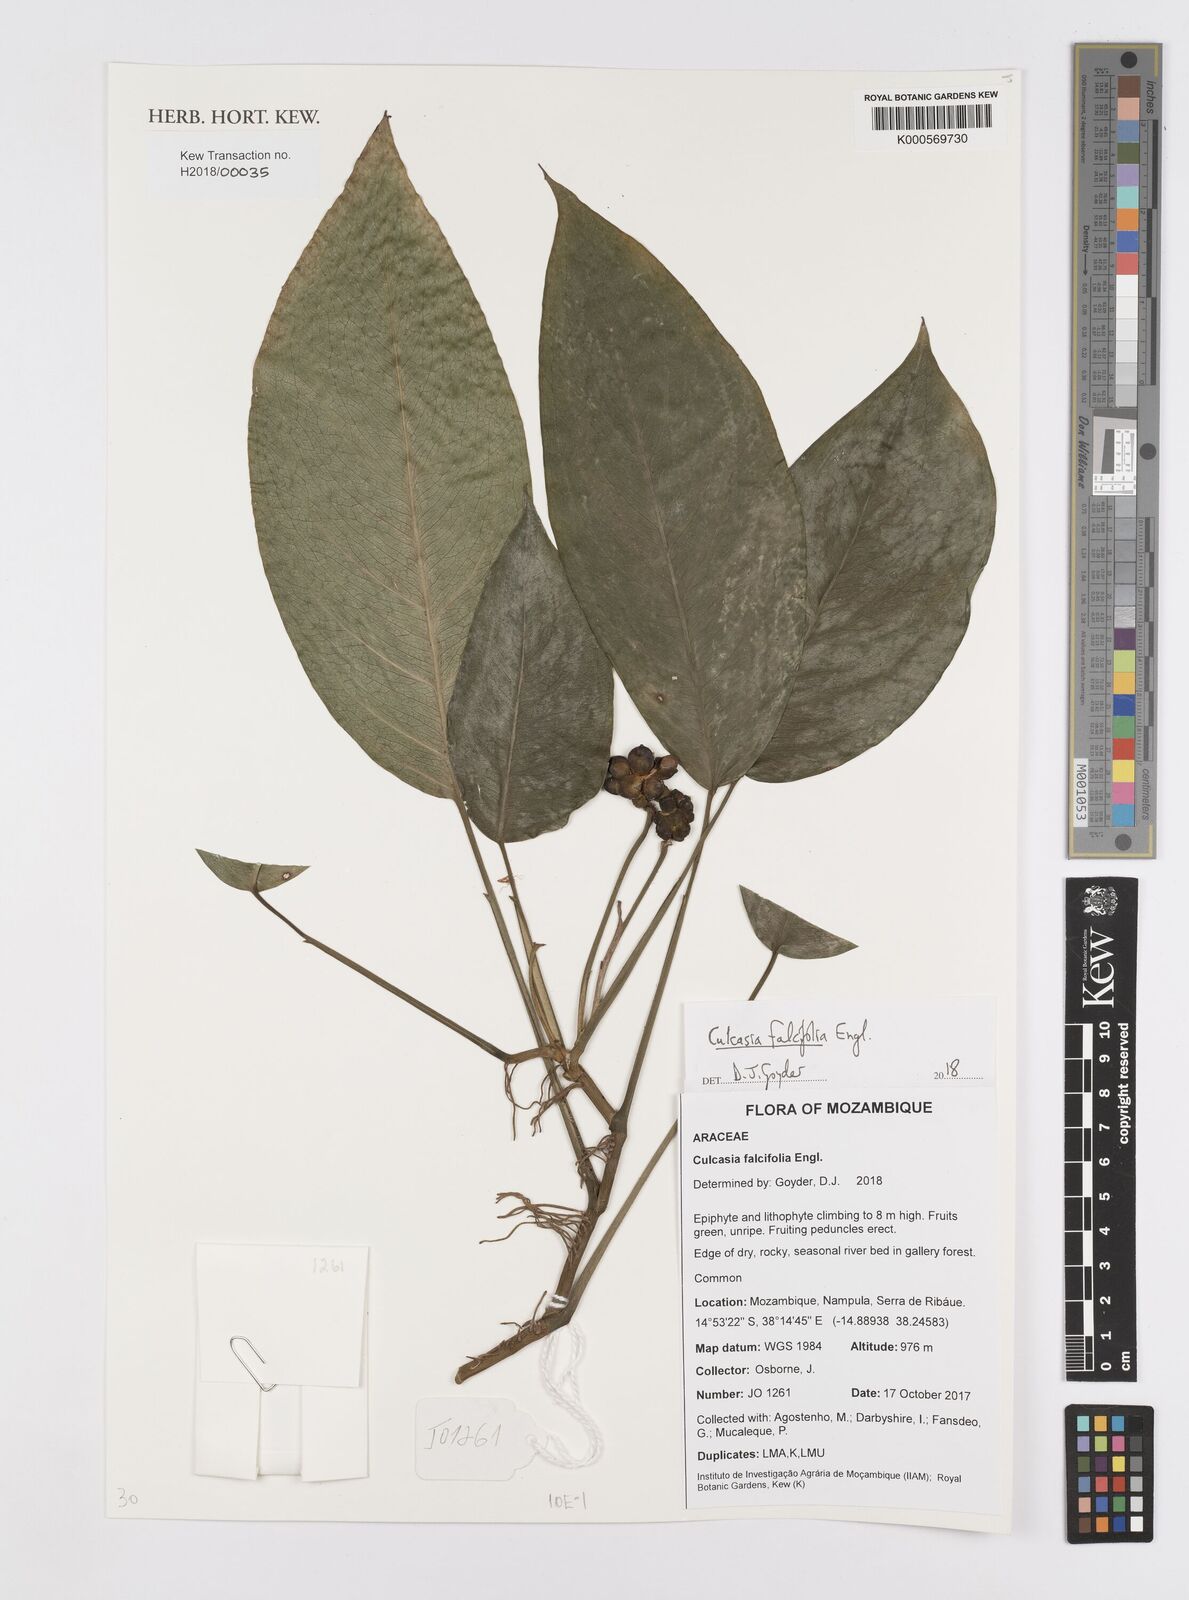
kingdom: Plantae
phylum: Tracheophyta
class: Liliopsida
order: Alismatales
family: Araceae
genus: Culcasia
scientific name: Culcasia falcifolia
